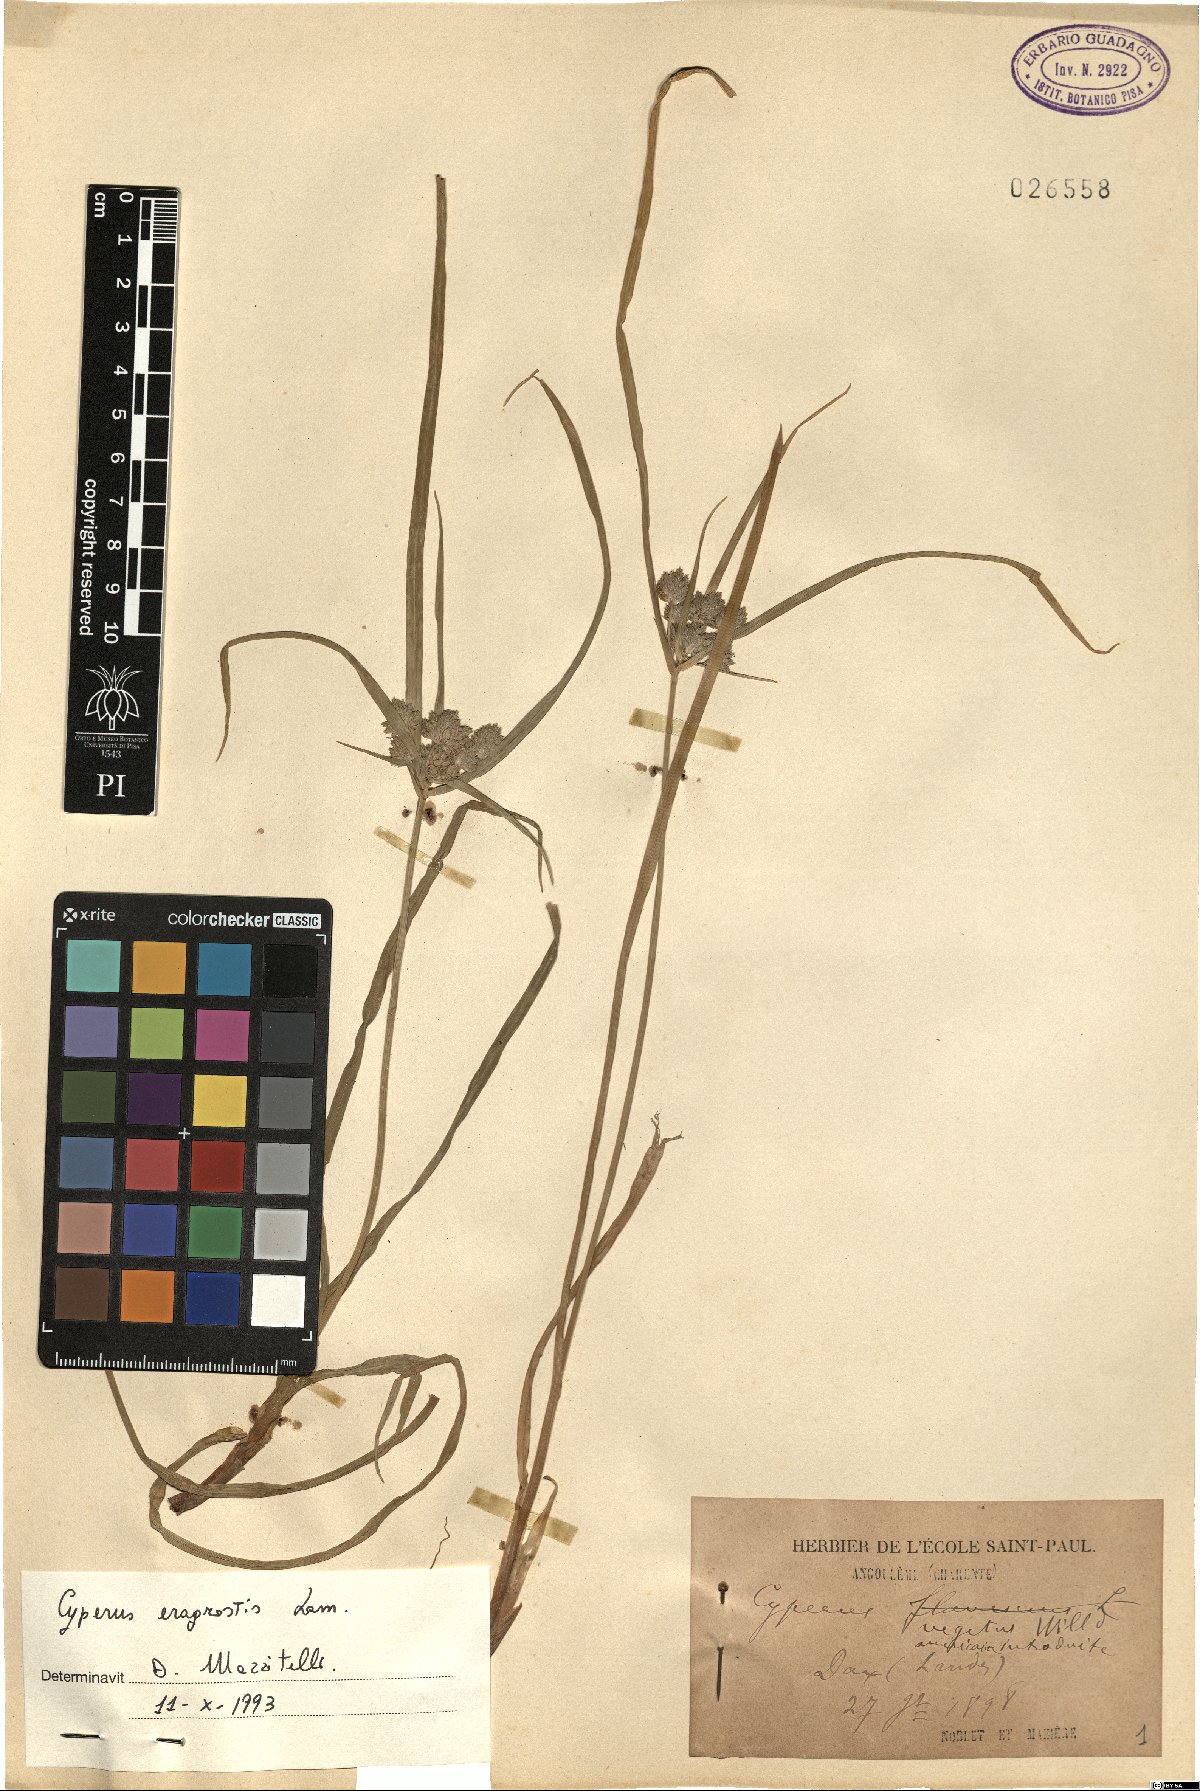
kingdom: Plantae
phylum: Tracheophyta
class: Liliopsida
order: Poales
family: Cyperaceae
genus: Cyperus
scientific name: Cyperus eragrostis
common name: Tall flatsedge
